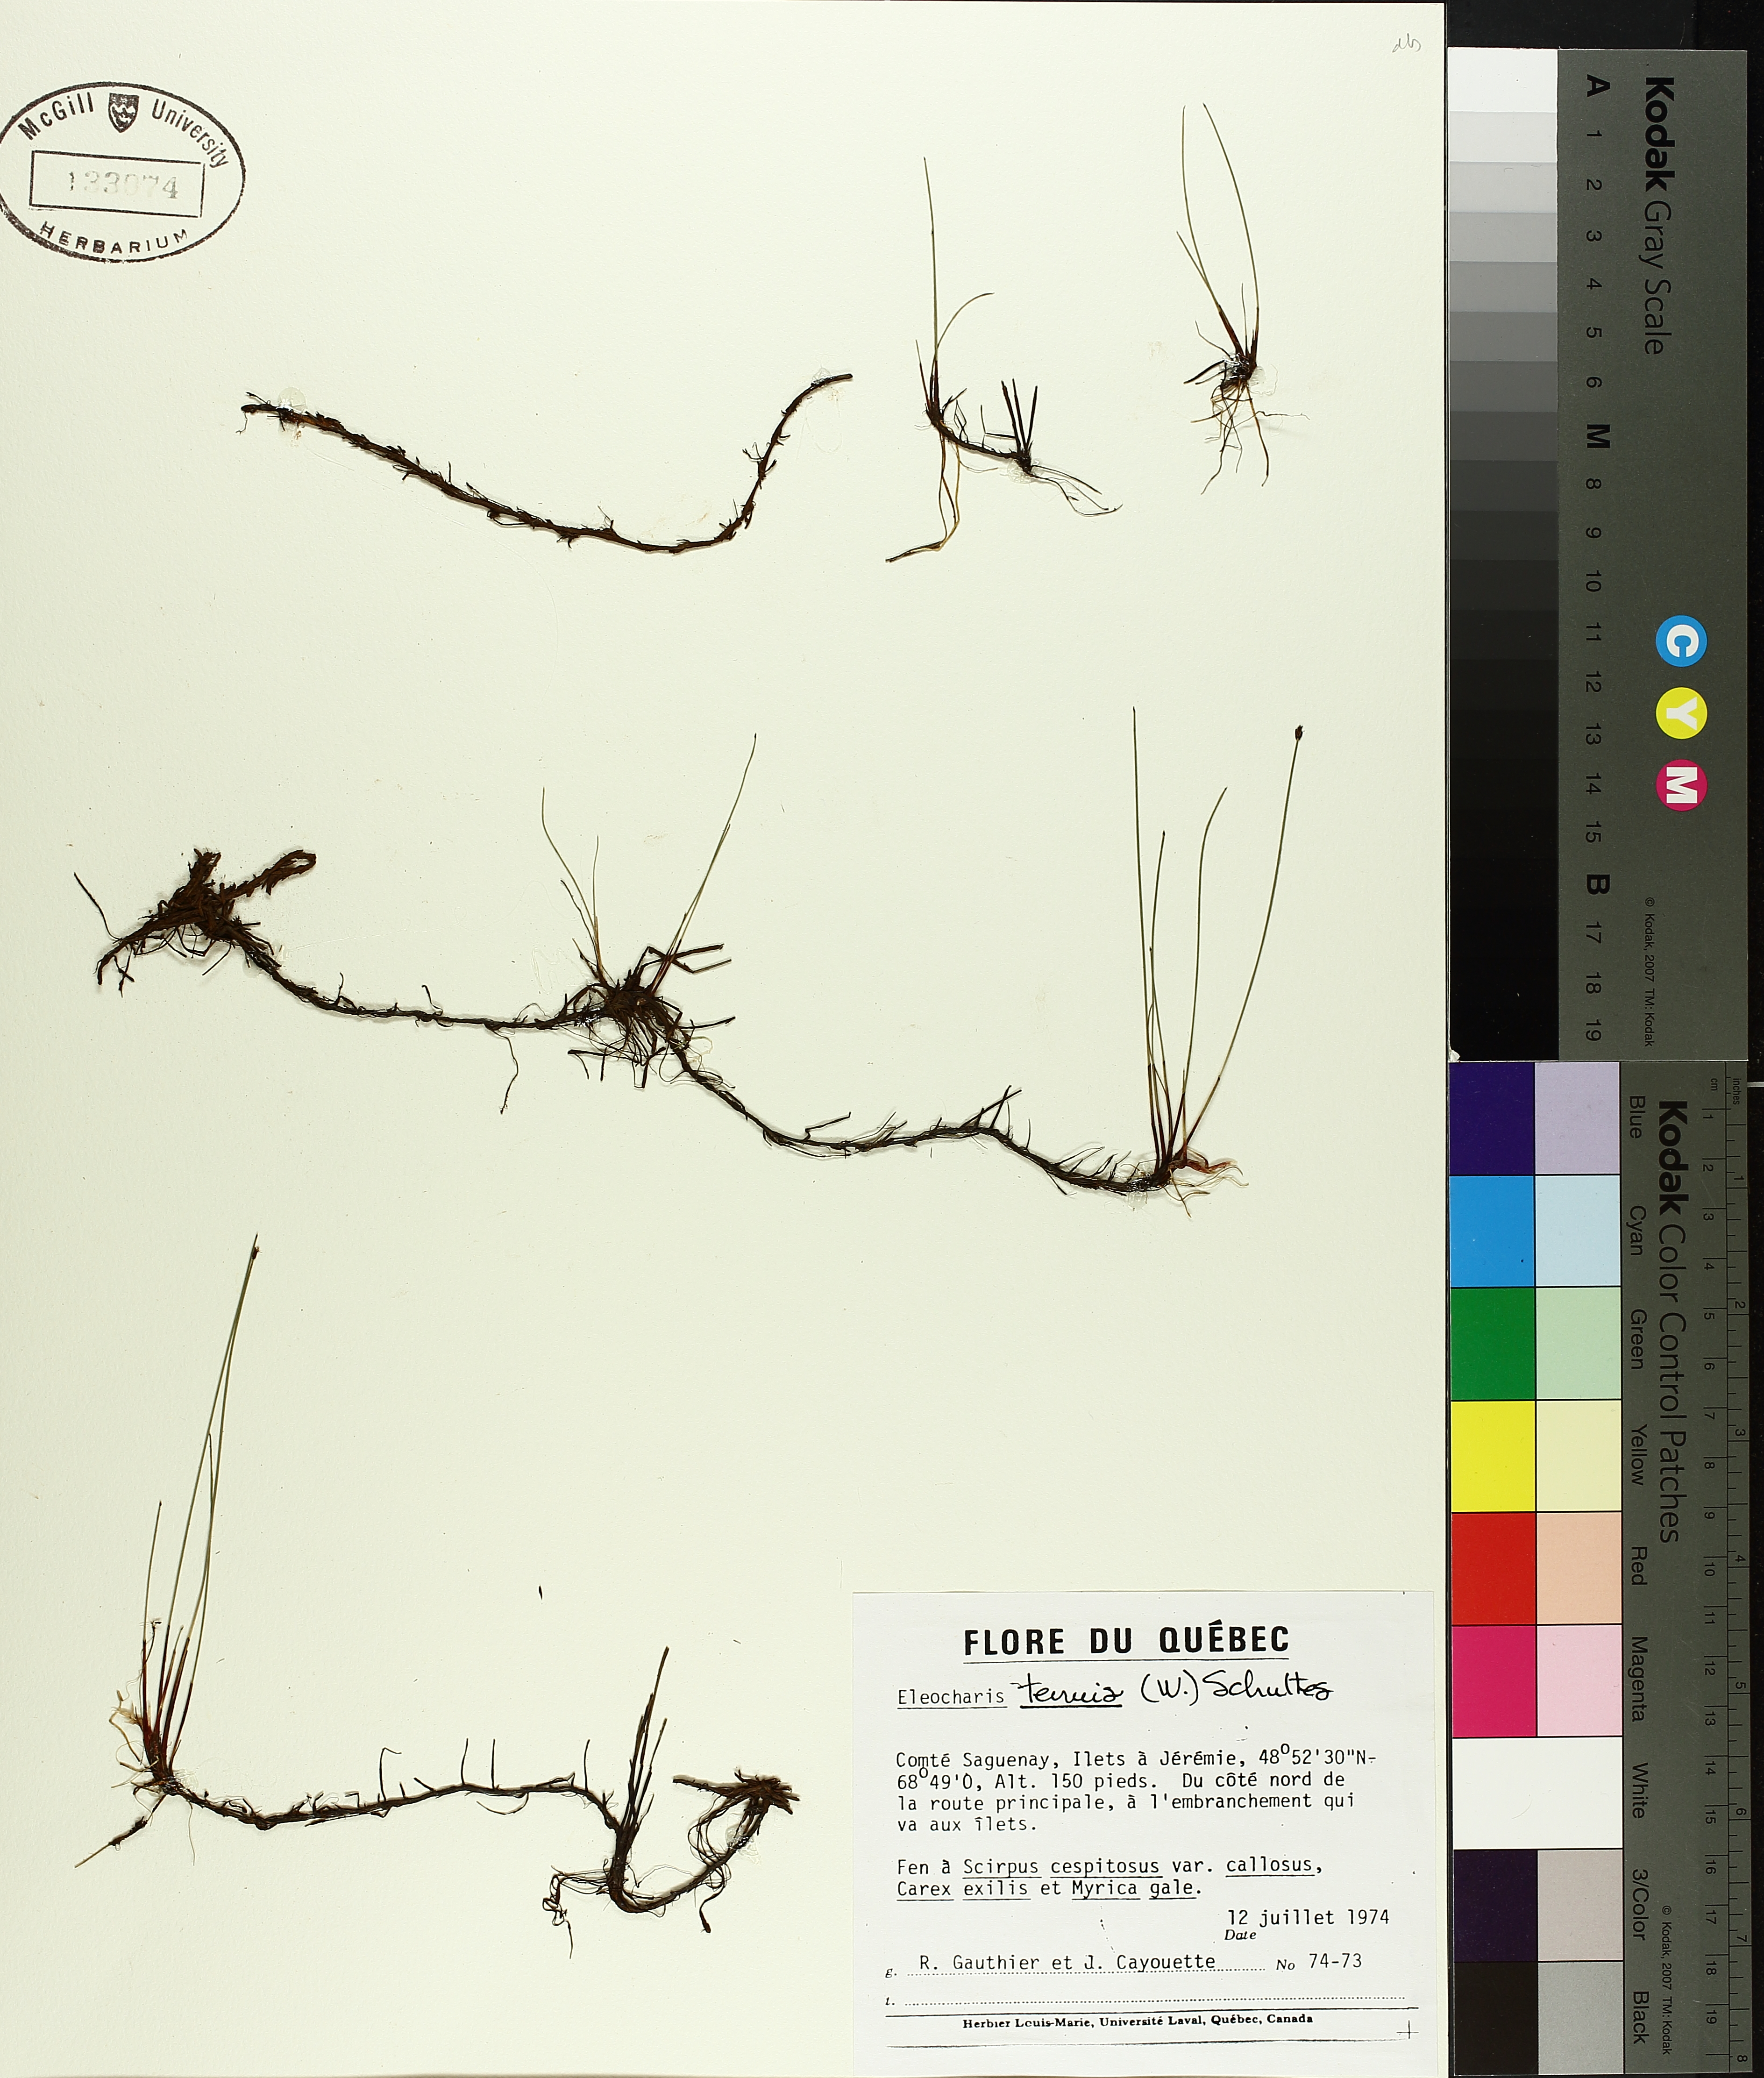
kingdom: Plantae
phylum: Tracheophyta
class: Liliopsida
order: Poales
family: Cyperaceae
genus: Eleocharis
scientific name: Eleocharis tenuis
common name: Dog's hair
